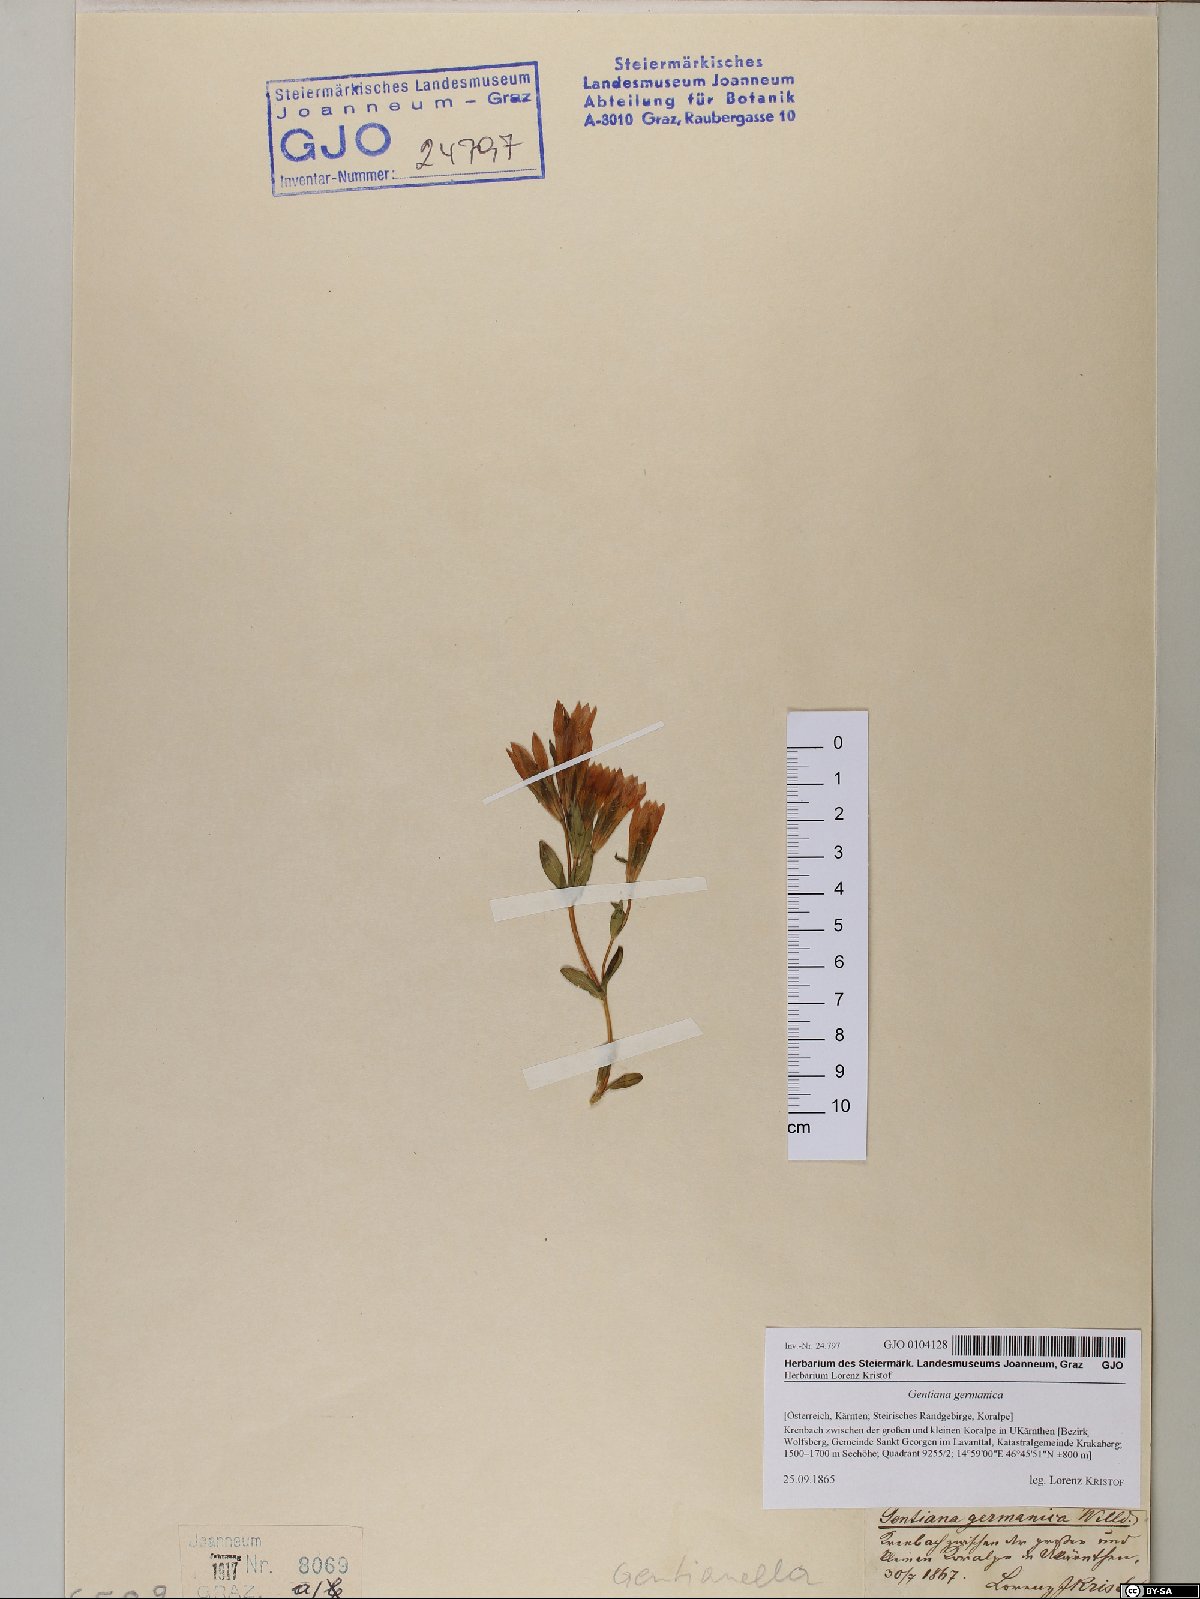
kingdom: Plantae
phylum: Tracheophyta
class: Magnoliopsida
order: Gentianales
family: Gentianaceae
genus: Gentianella
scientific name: Gentianella germanica
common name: Chiltern-gentian
